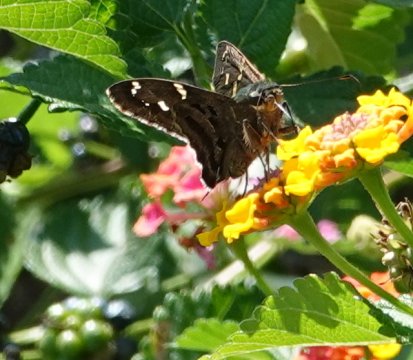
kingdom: Animalia
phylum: Arthropoda
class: Insecta
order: Lepidoptera
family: Hesperiidae
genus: Urbanus
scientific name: Urbanus proteus
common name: Long-tailed Skipper
